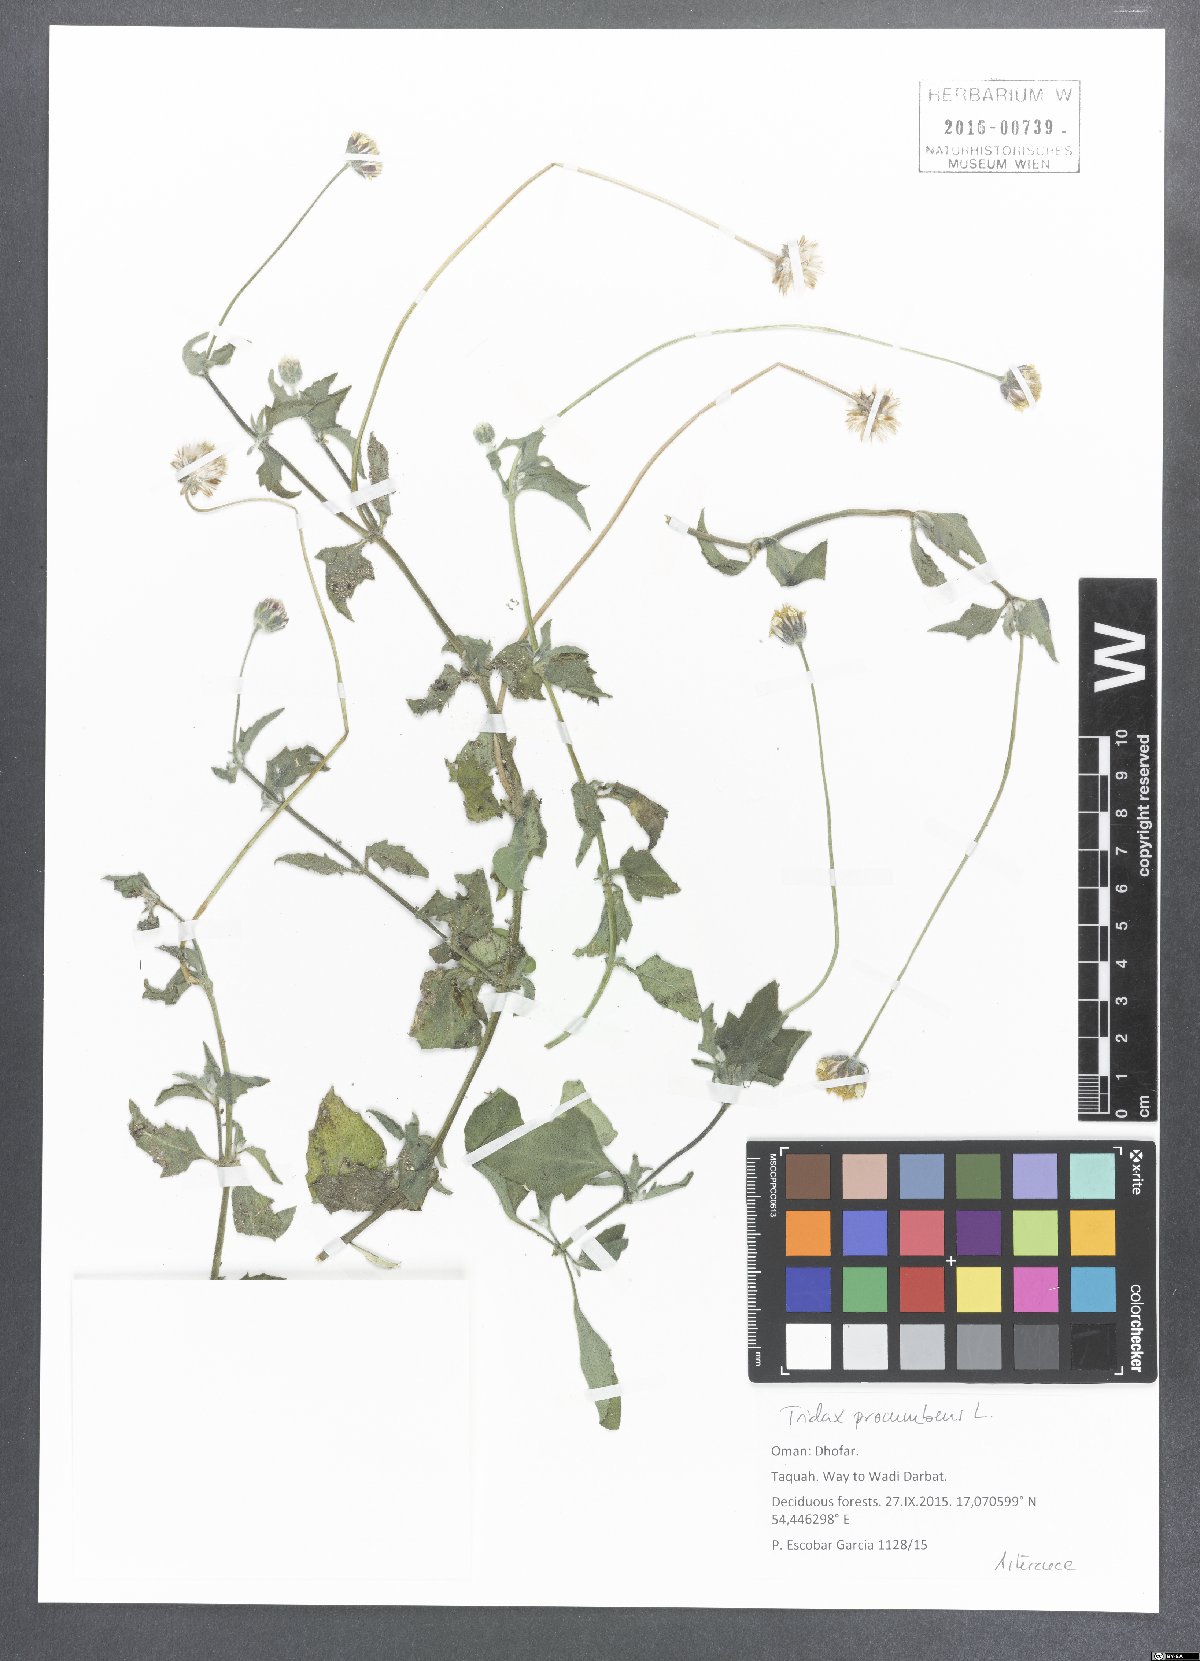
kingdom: Plantae
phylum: Tracheophyta
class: Magnoliopsida
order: Asterales
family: Asteraceae
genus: Tridax
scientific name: Tridax procumbens
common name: Coatbuttons
